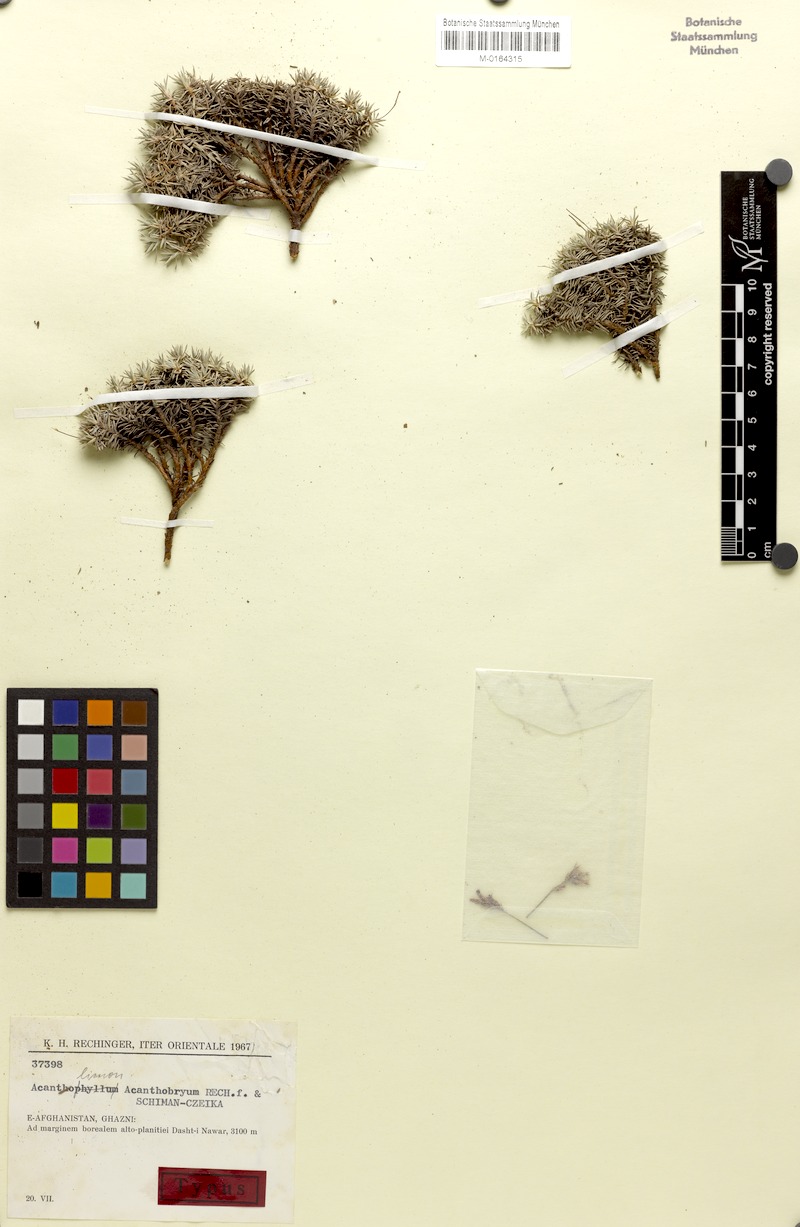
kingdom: Plantae
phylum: Tracheophyta
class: Magnoliopsida
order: Caryophyllales
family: Plumbaginaceae
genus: Acantholimon
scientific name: Acantholimon acanthobryum
